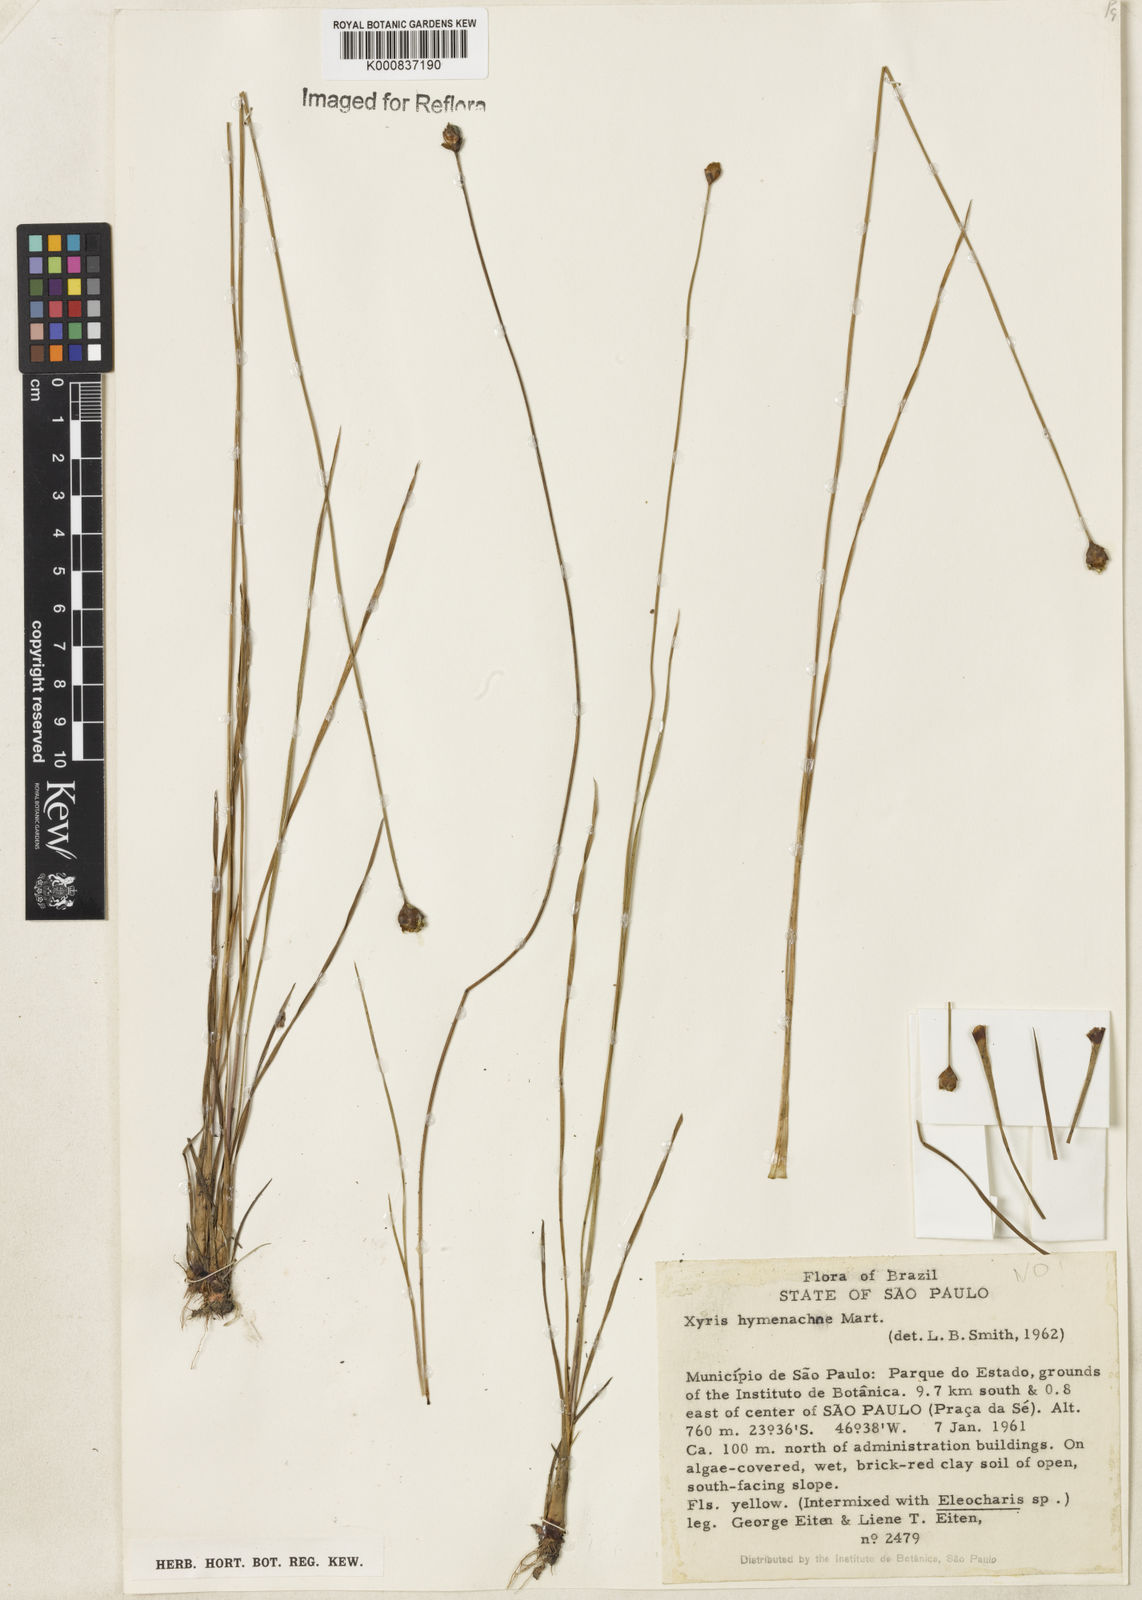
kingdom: Plantae
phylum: Tracheophyta
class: Liliopsida
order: Poales
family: Xyridaceae
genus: Xyris
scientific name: Xyris hymenachne
